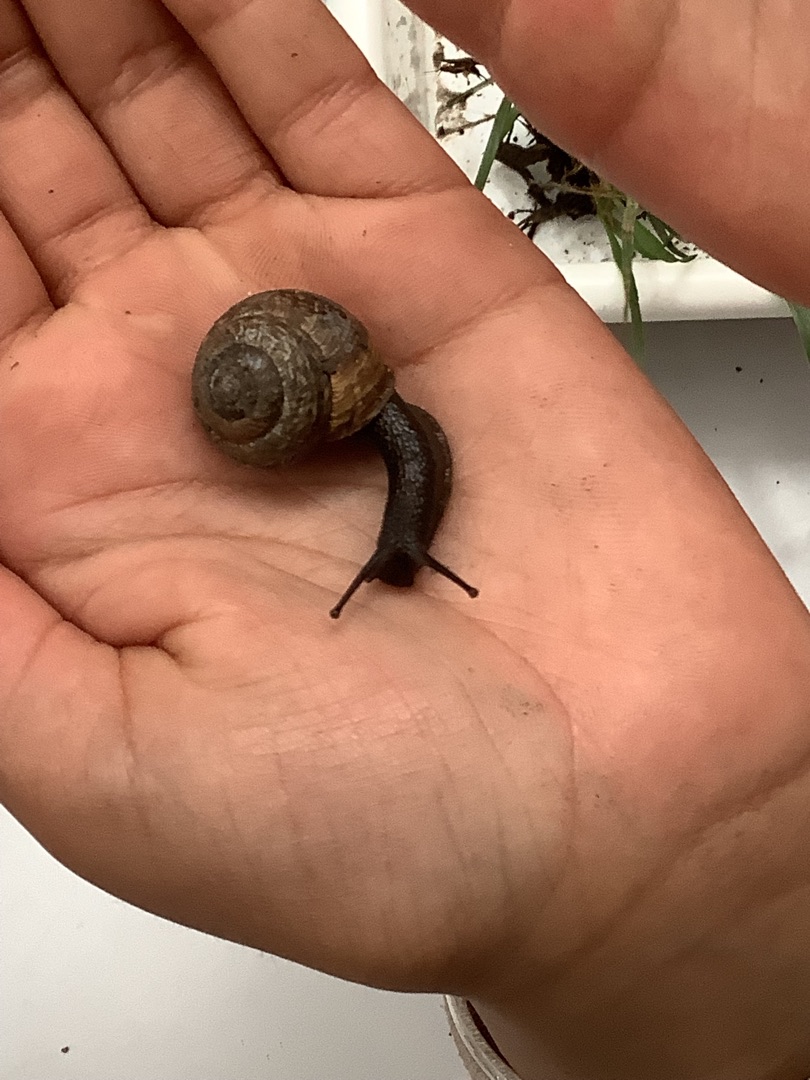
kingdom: Animalia
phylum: Mollusca
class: Gastropoda
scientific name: Gastropoda
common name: Snegle
